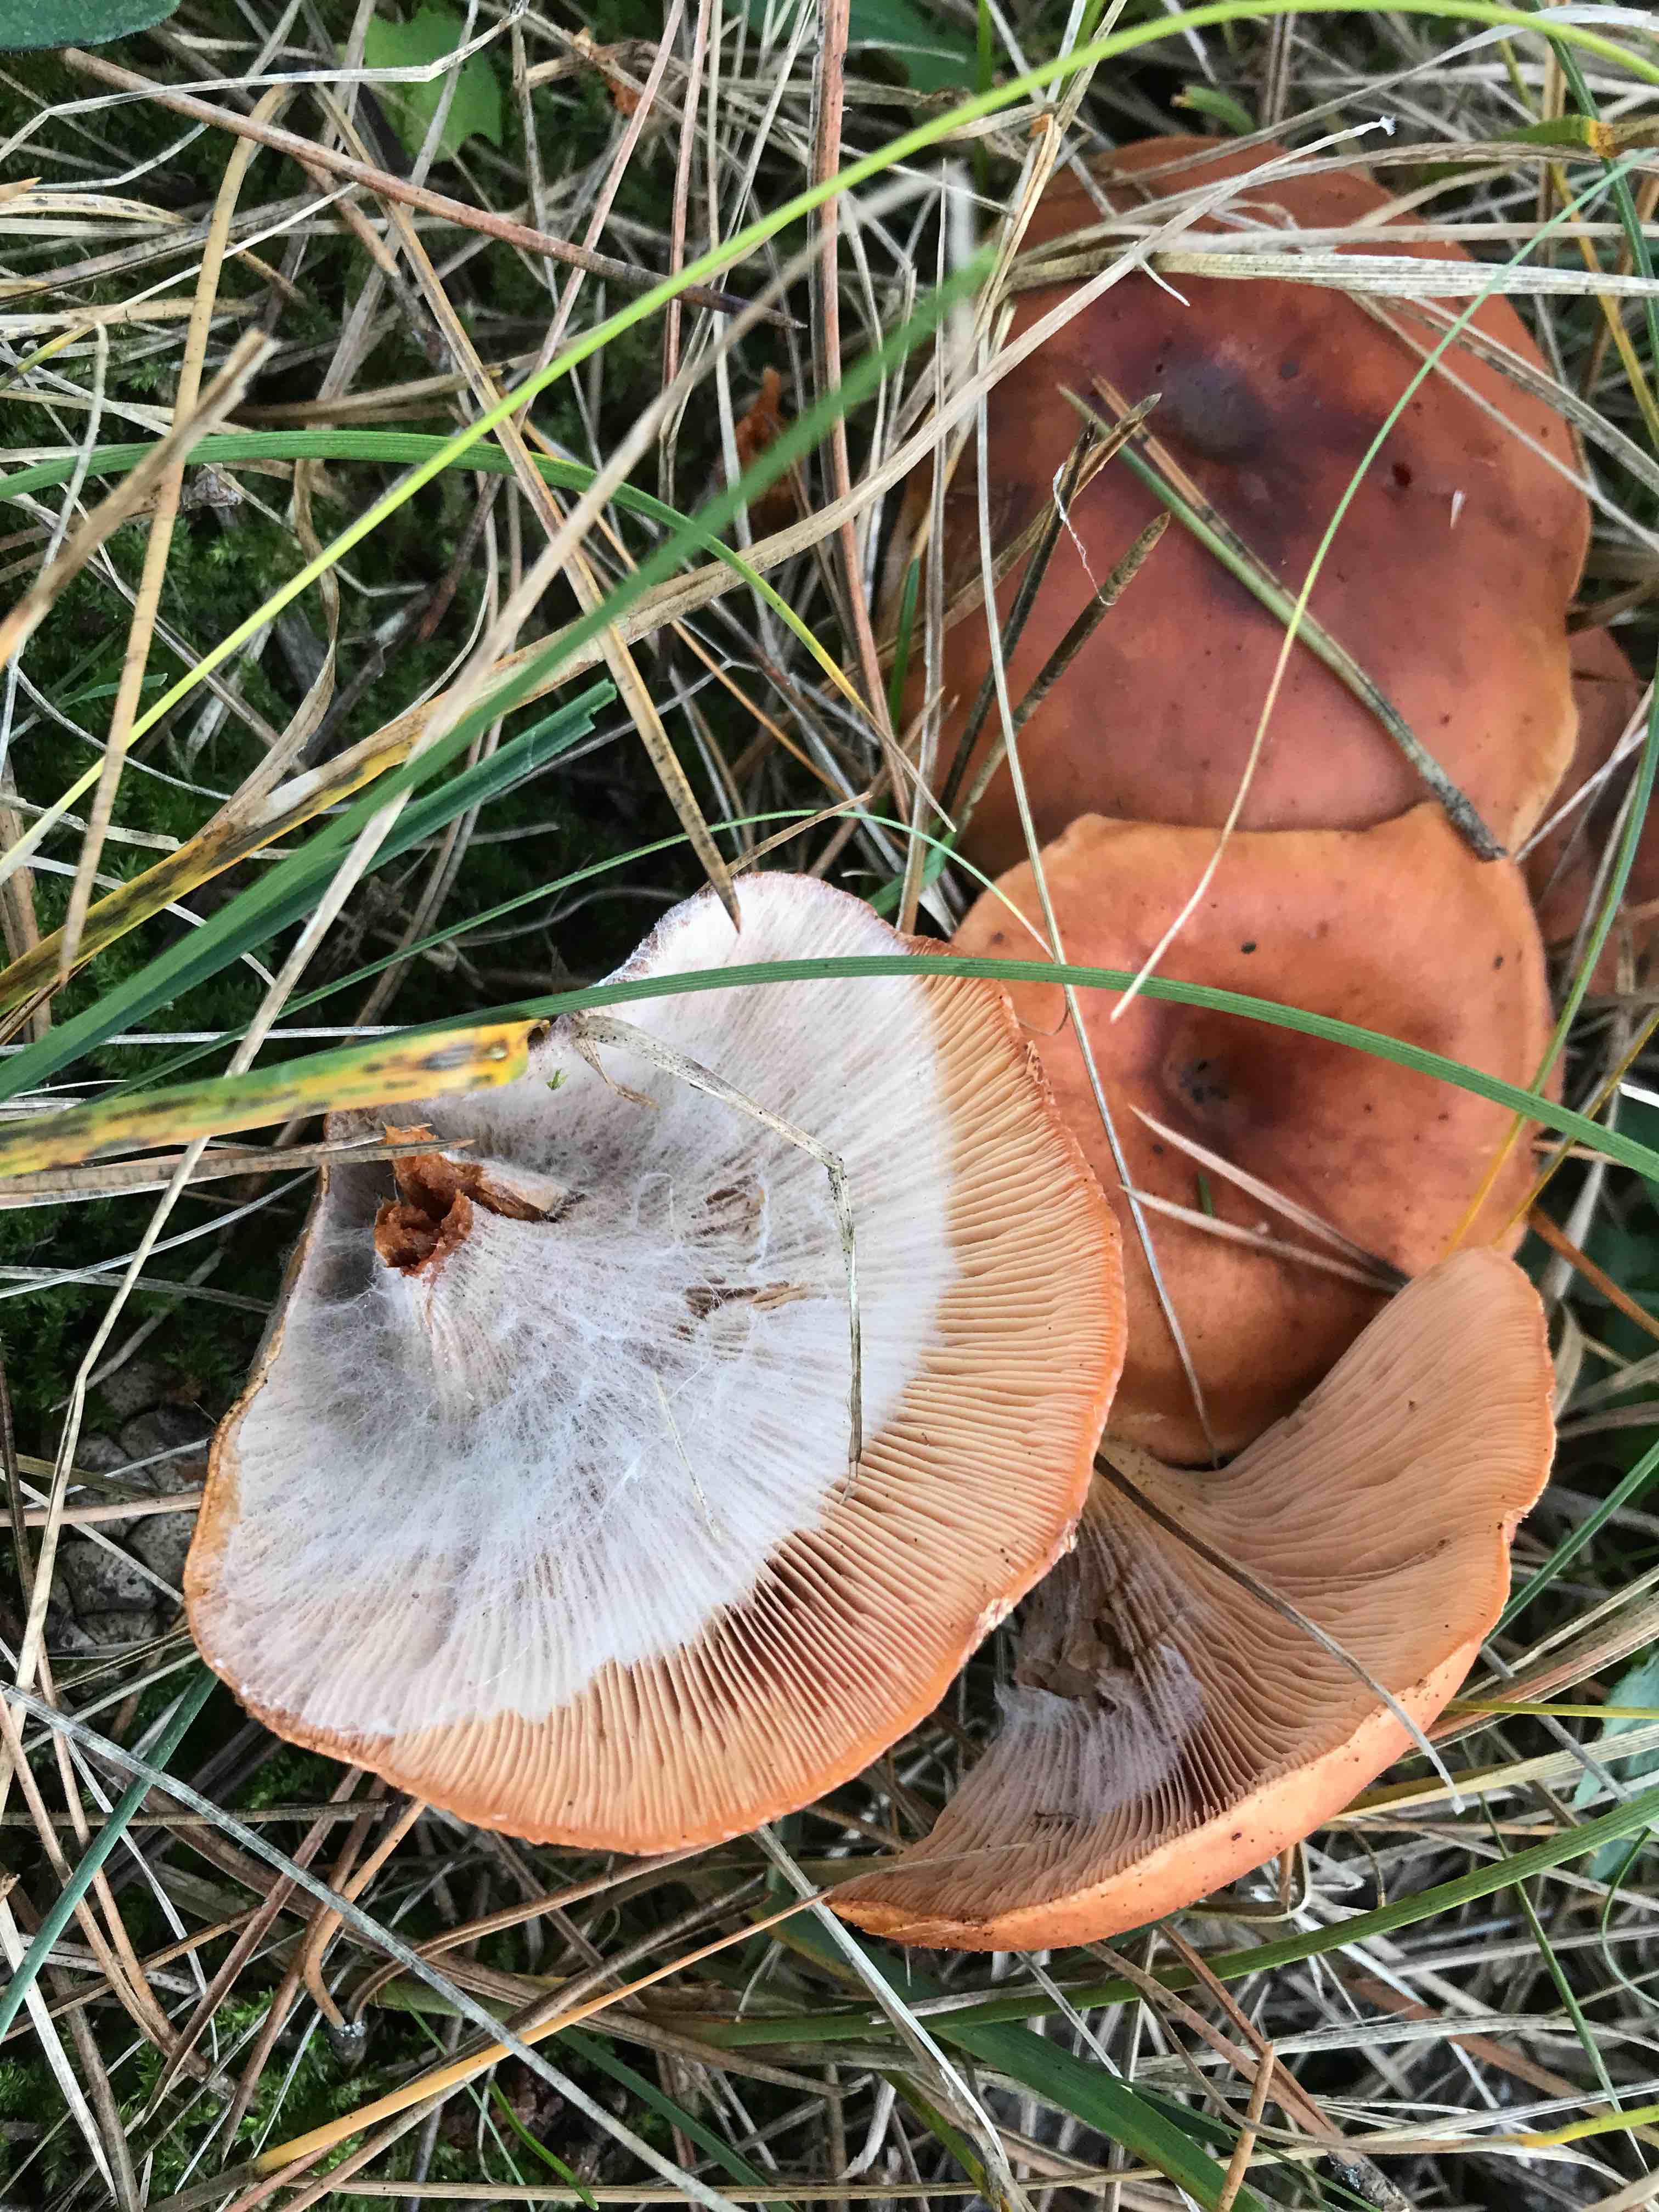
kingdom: Fungi
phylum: Basidiomycota
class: Agaricomycetes
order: Agaricales
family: Tricholomataceae
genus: Paralepista
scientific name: Paralepista flaccida
